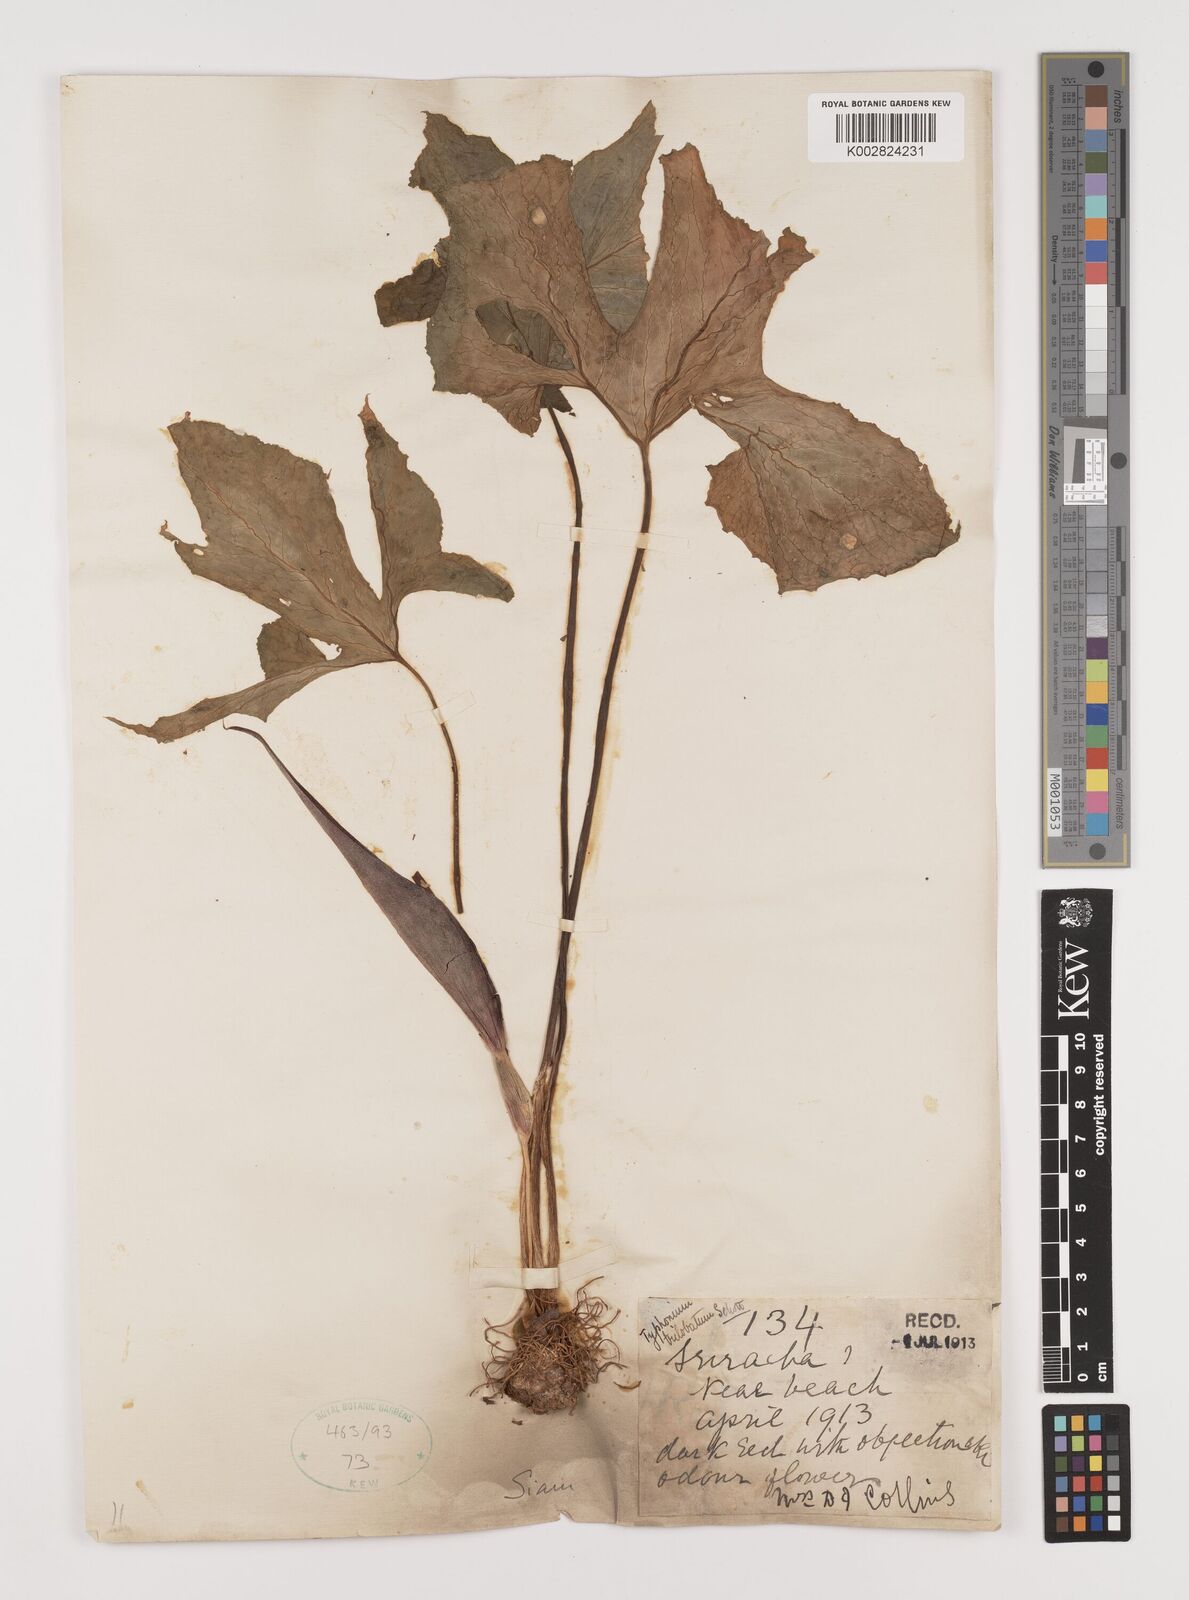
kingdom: Plantae
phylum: Tracheophyta
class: Liliopsida
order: Alismatales
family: Araceae
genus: Typhonium
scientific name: Typhonium trilobatum
